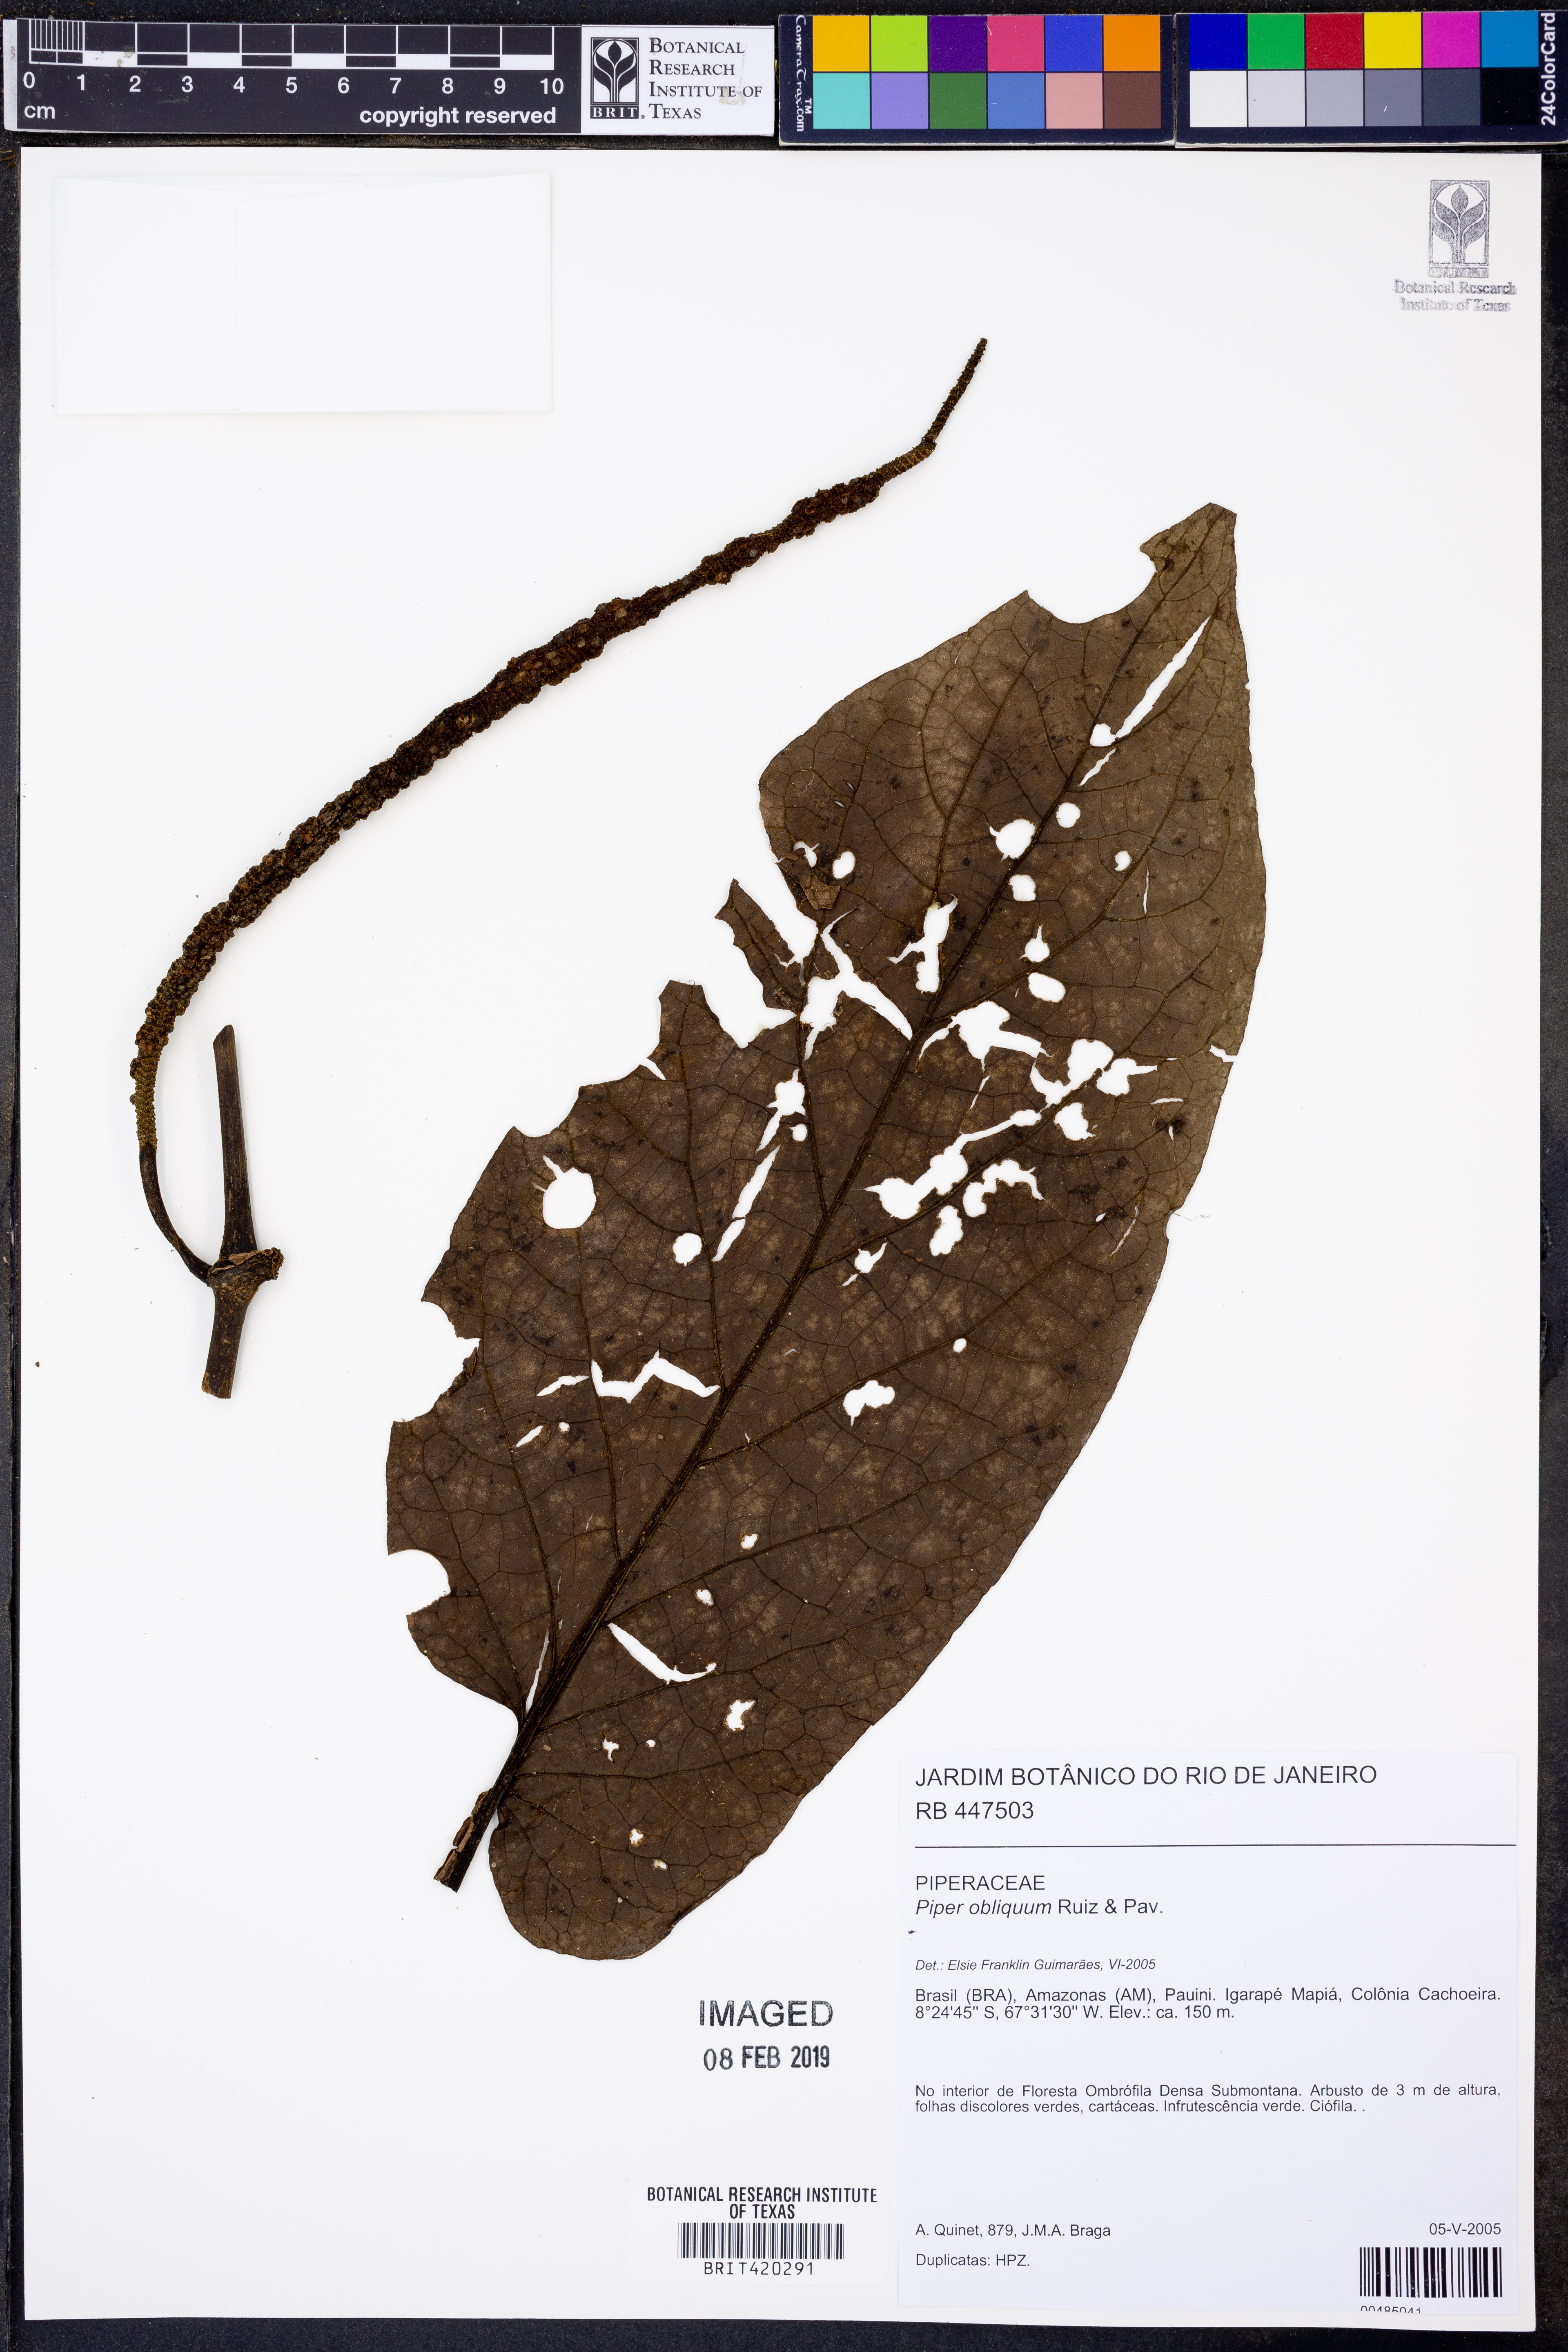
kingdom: Plantae
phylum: Tracheophyta
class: Magnoliopsida
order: Piperales
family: Piperaceae
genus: Piper
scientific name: Piper obliquum
